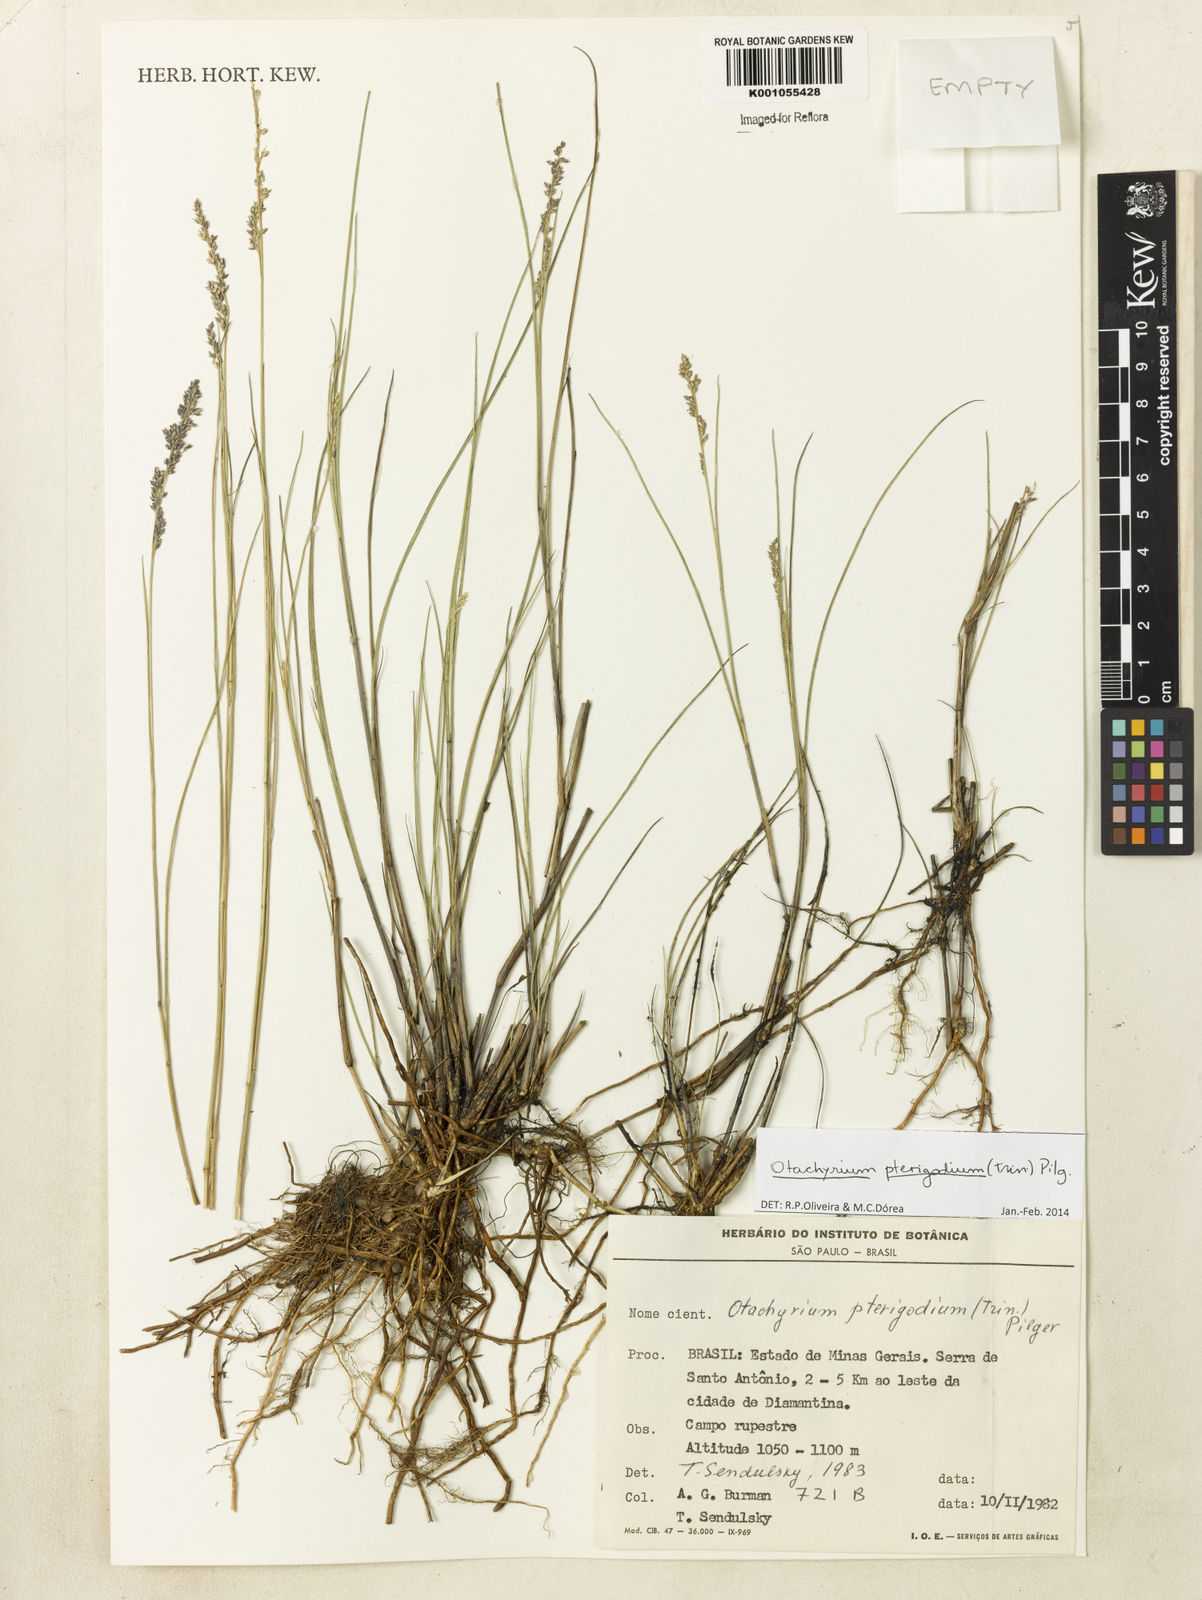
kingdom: Plantae
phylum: Tracheophyta
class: Liliopsida
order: Poales
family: Poaceae
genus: Otachyrium
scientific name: Otachyrium pterigodium
